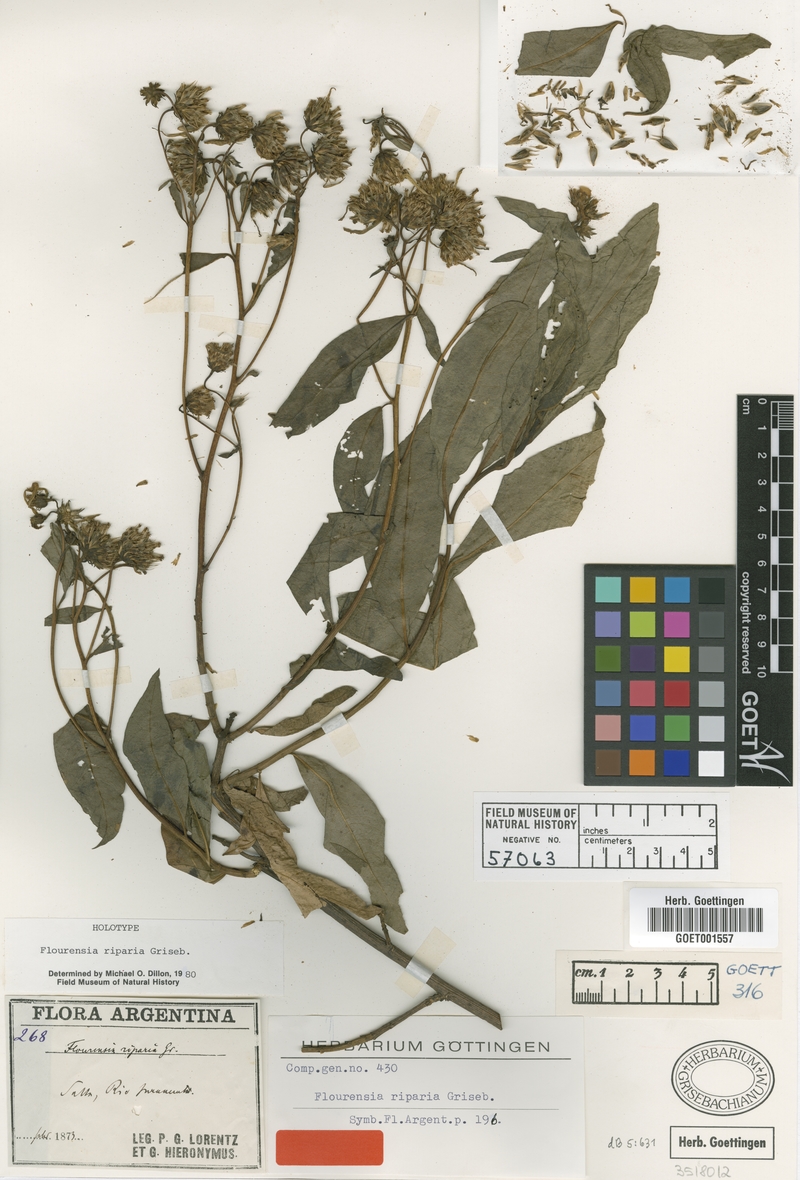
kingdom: Plantae
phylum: Tracheophyta
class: Magnoliopsida
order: Asterales
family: Asteraceae
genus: Flourensia
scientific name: Flourensia riparia
